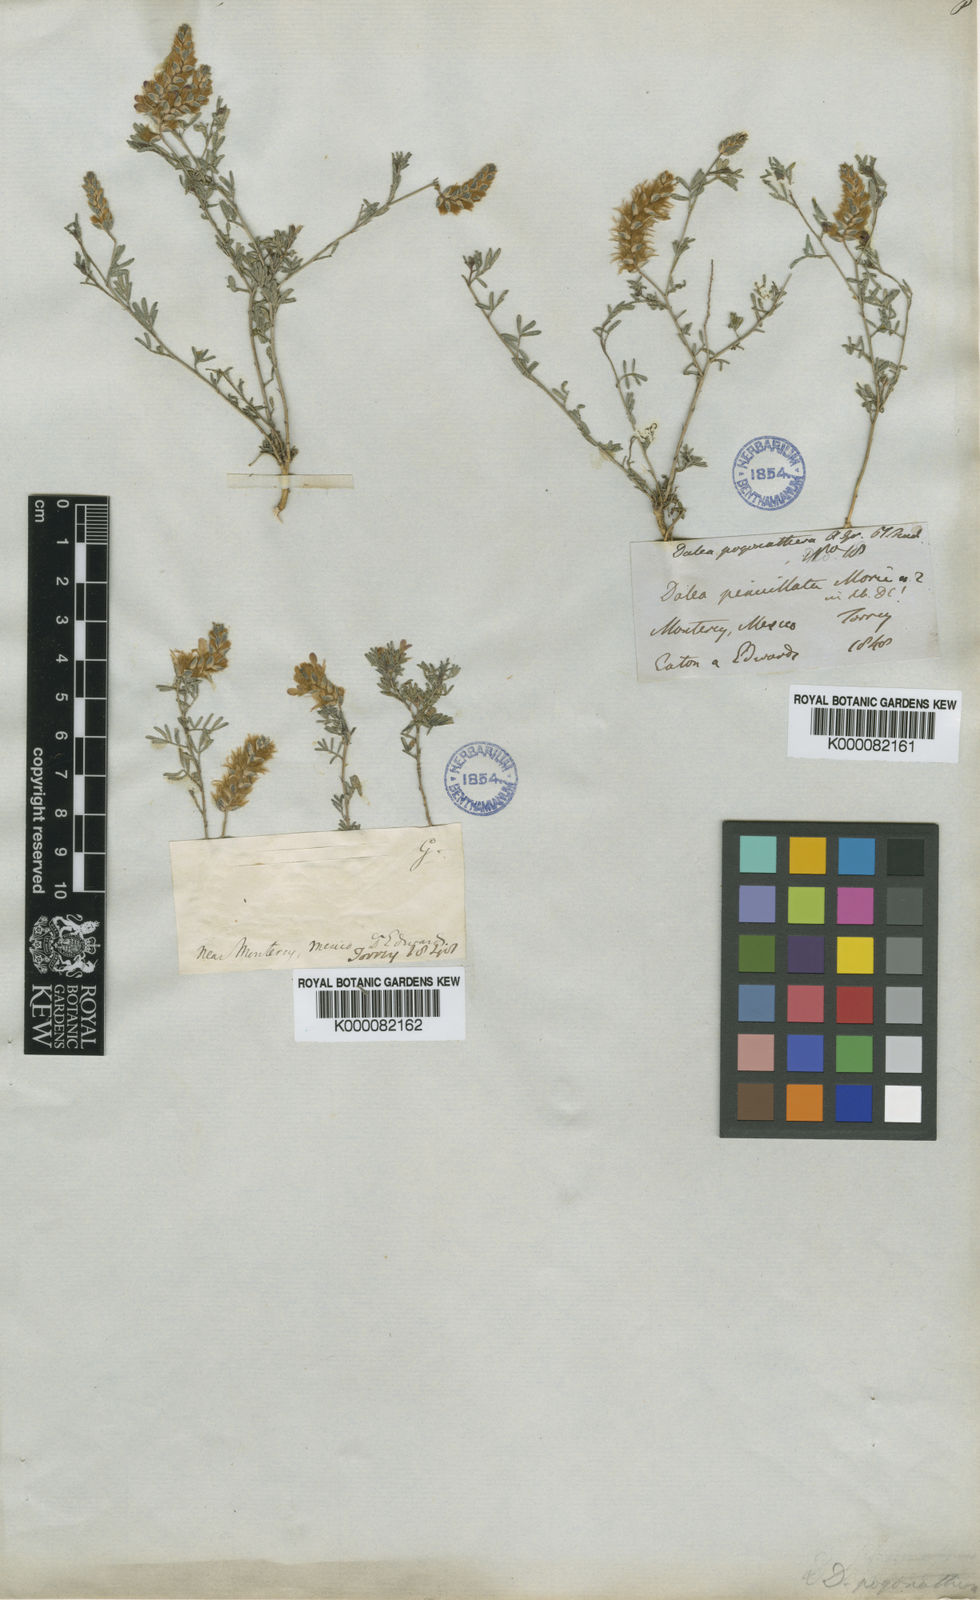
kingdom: Plantae
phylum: Tracheophyta
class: Magnoliopsida
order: Fabales
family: Fabaceae
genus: Dalea
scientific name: Dalea pogonathera
